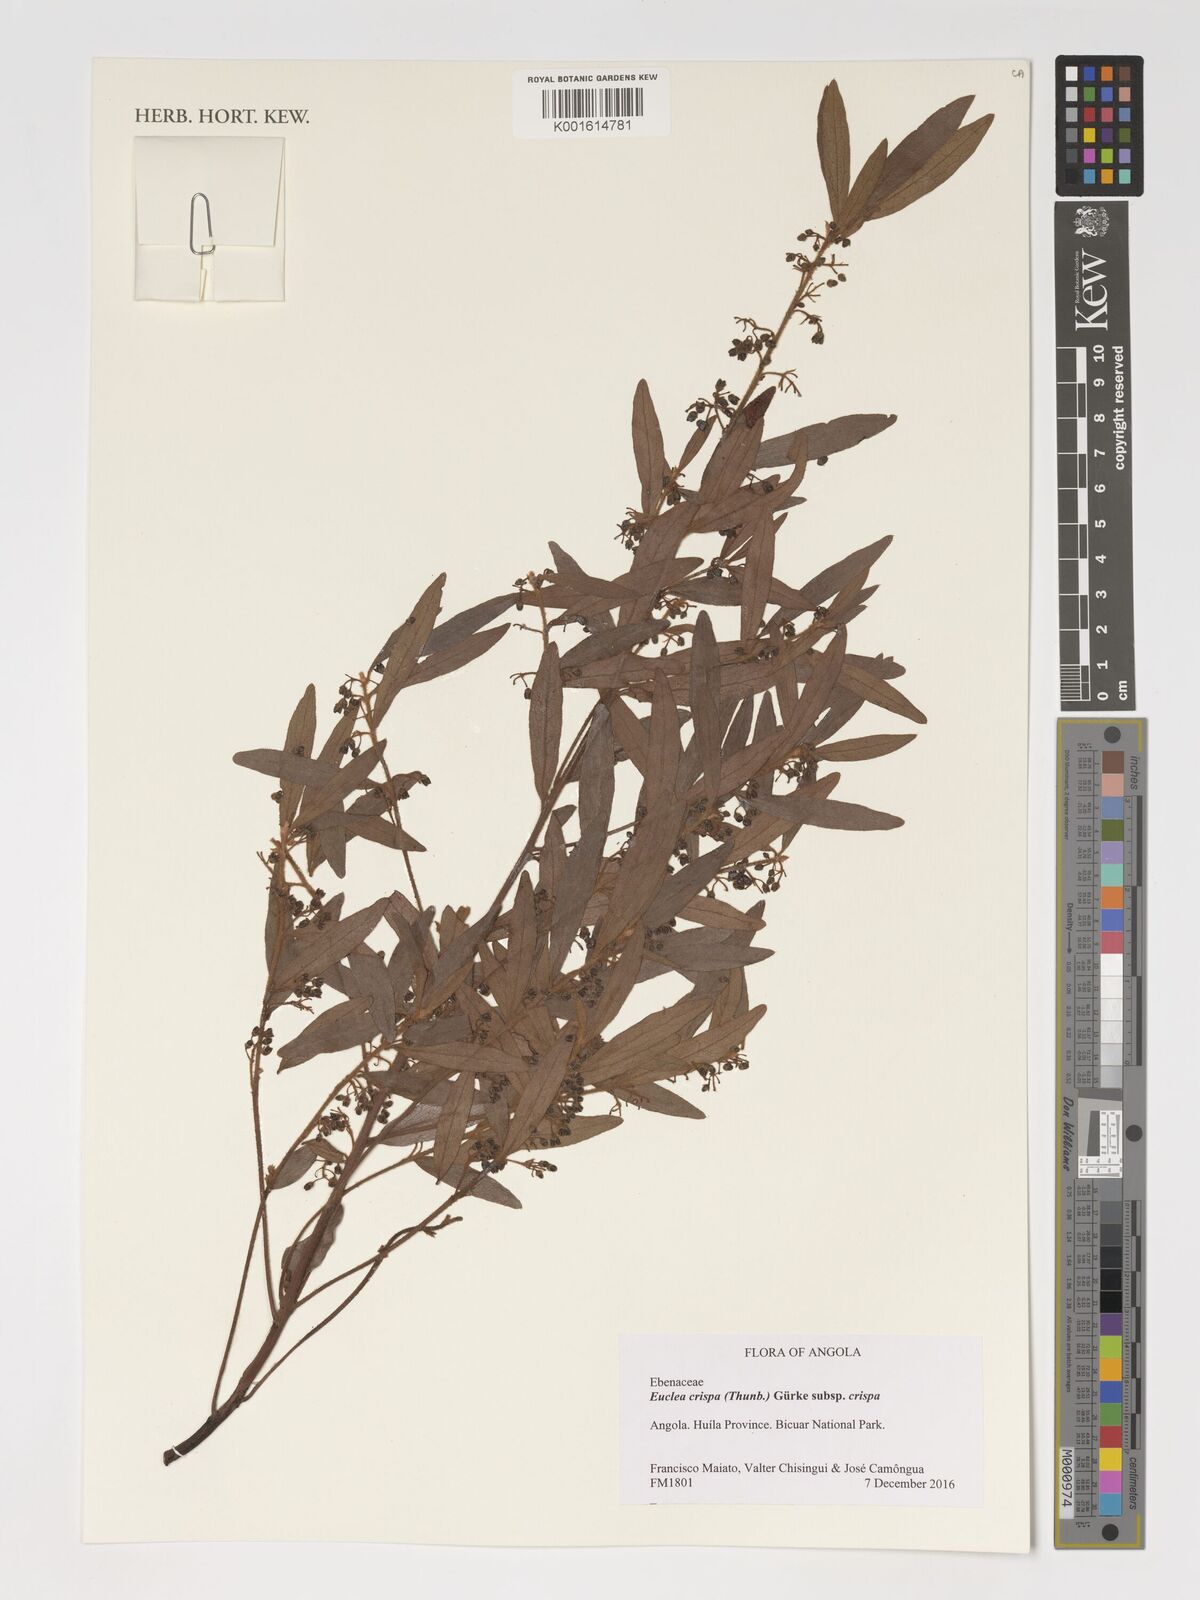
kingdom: Plantae
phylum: Tracheophyta
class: Magnoliopsida
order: Ericales
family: Ebenaceae
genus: Euclea
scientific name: Euclea crispa
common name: Blue guarri
